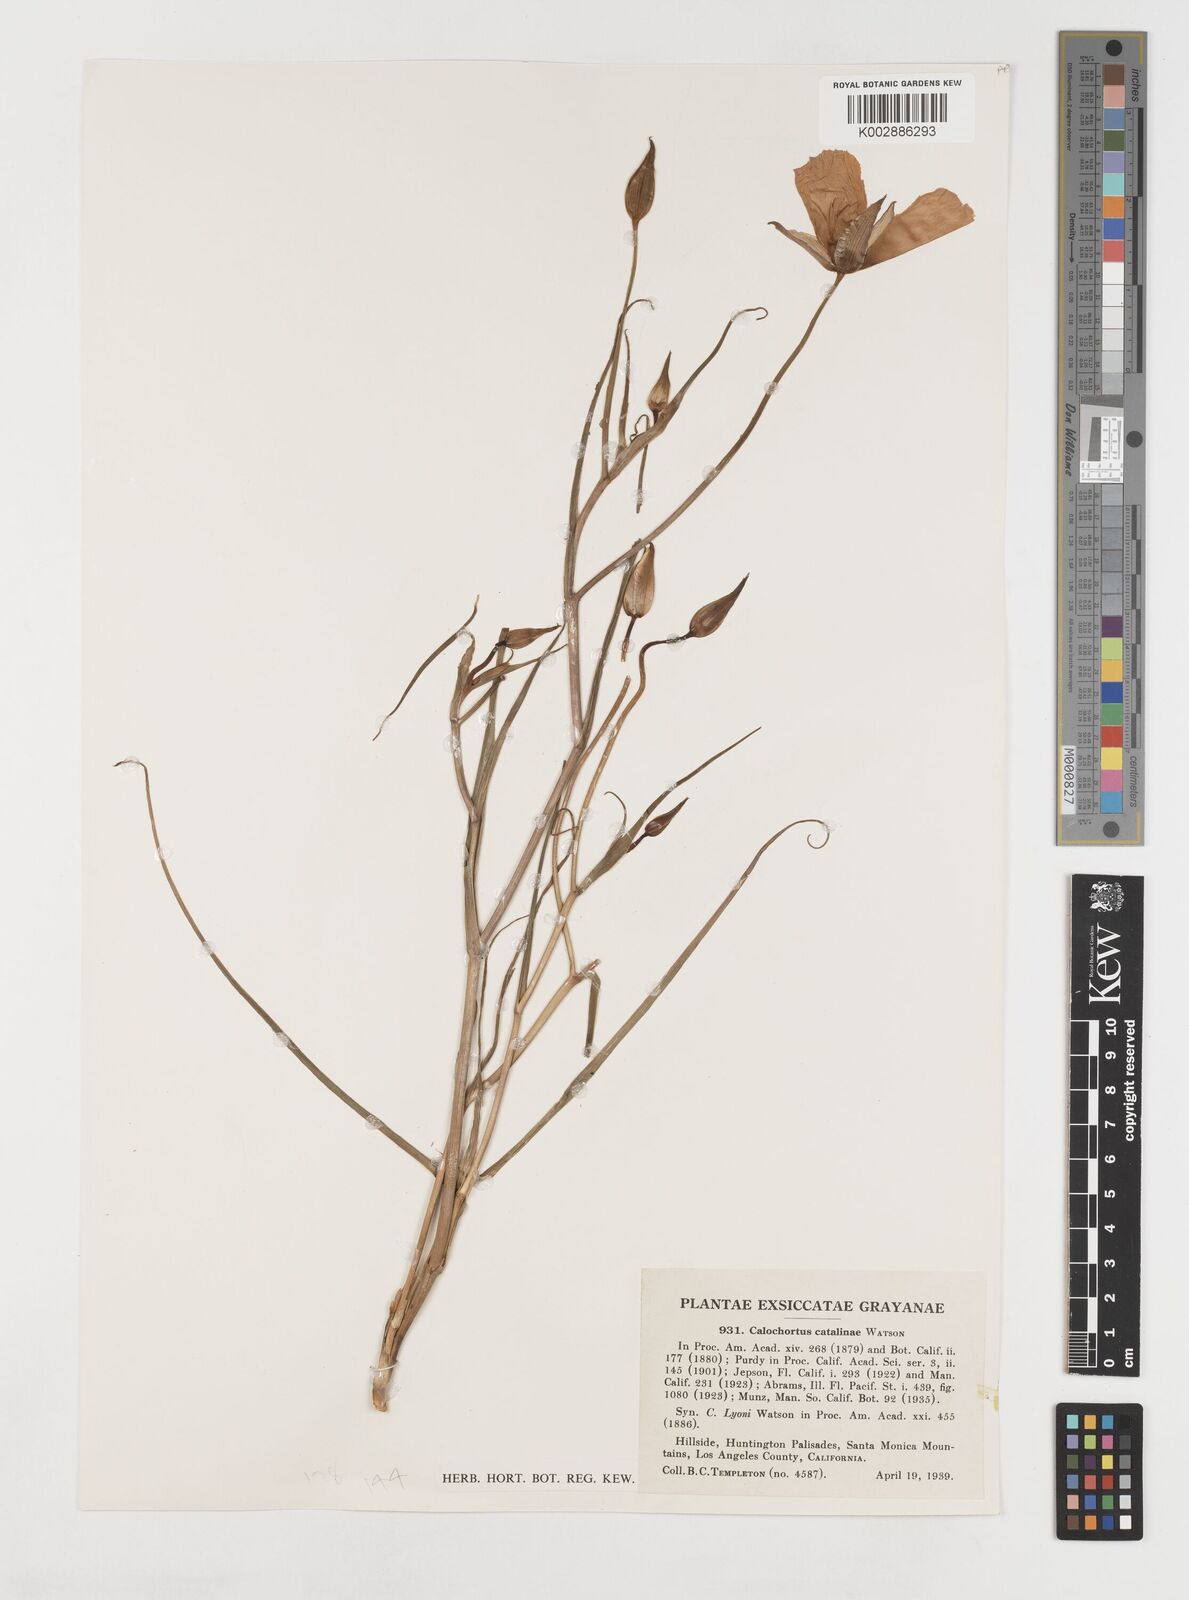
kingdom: Plantae
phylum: Tracheophyta
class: Liliopsida
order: Liliales
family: Liliaceae
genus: Calochortus
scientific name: Calochortus catalinae
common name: Catalina mariposa-lily
